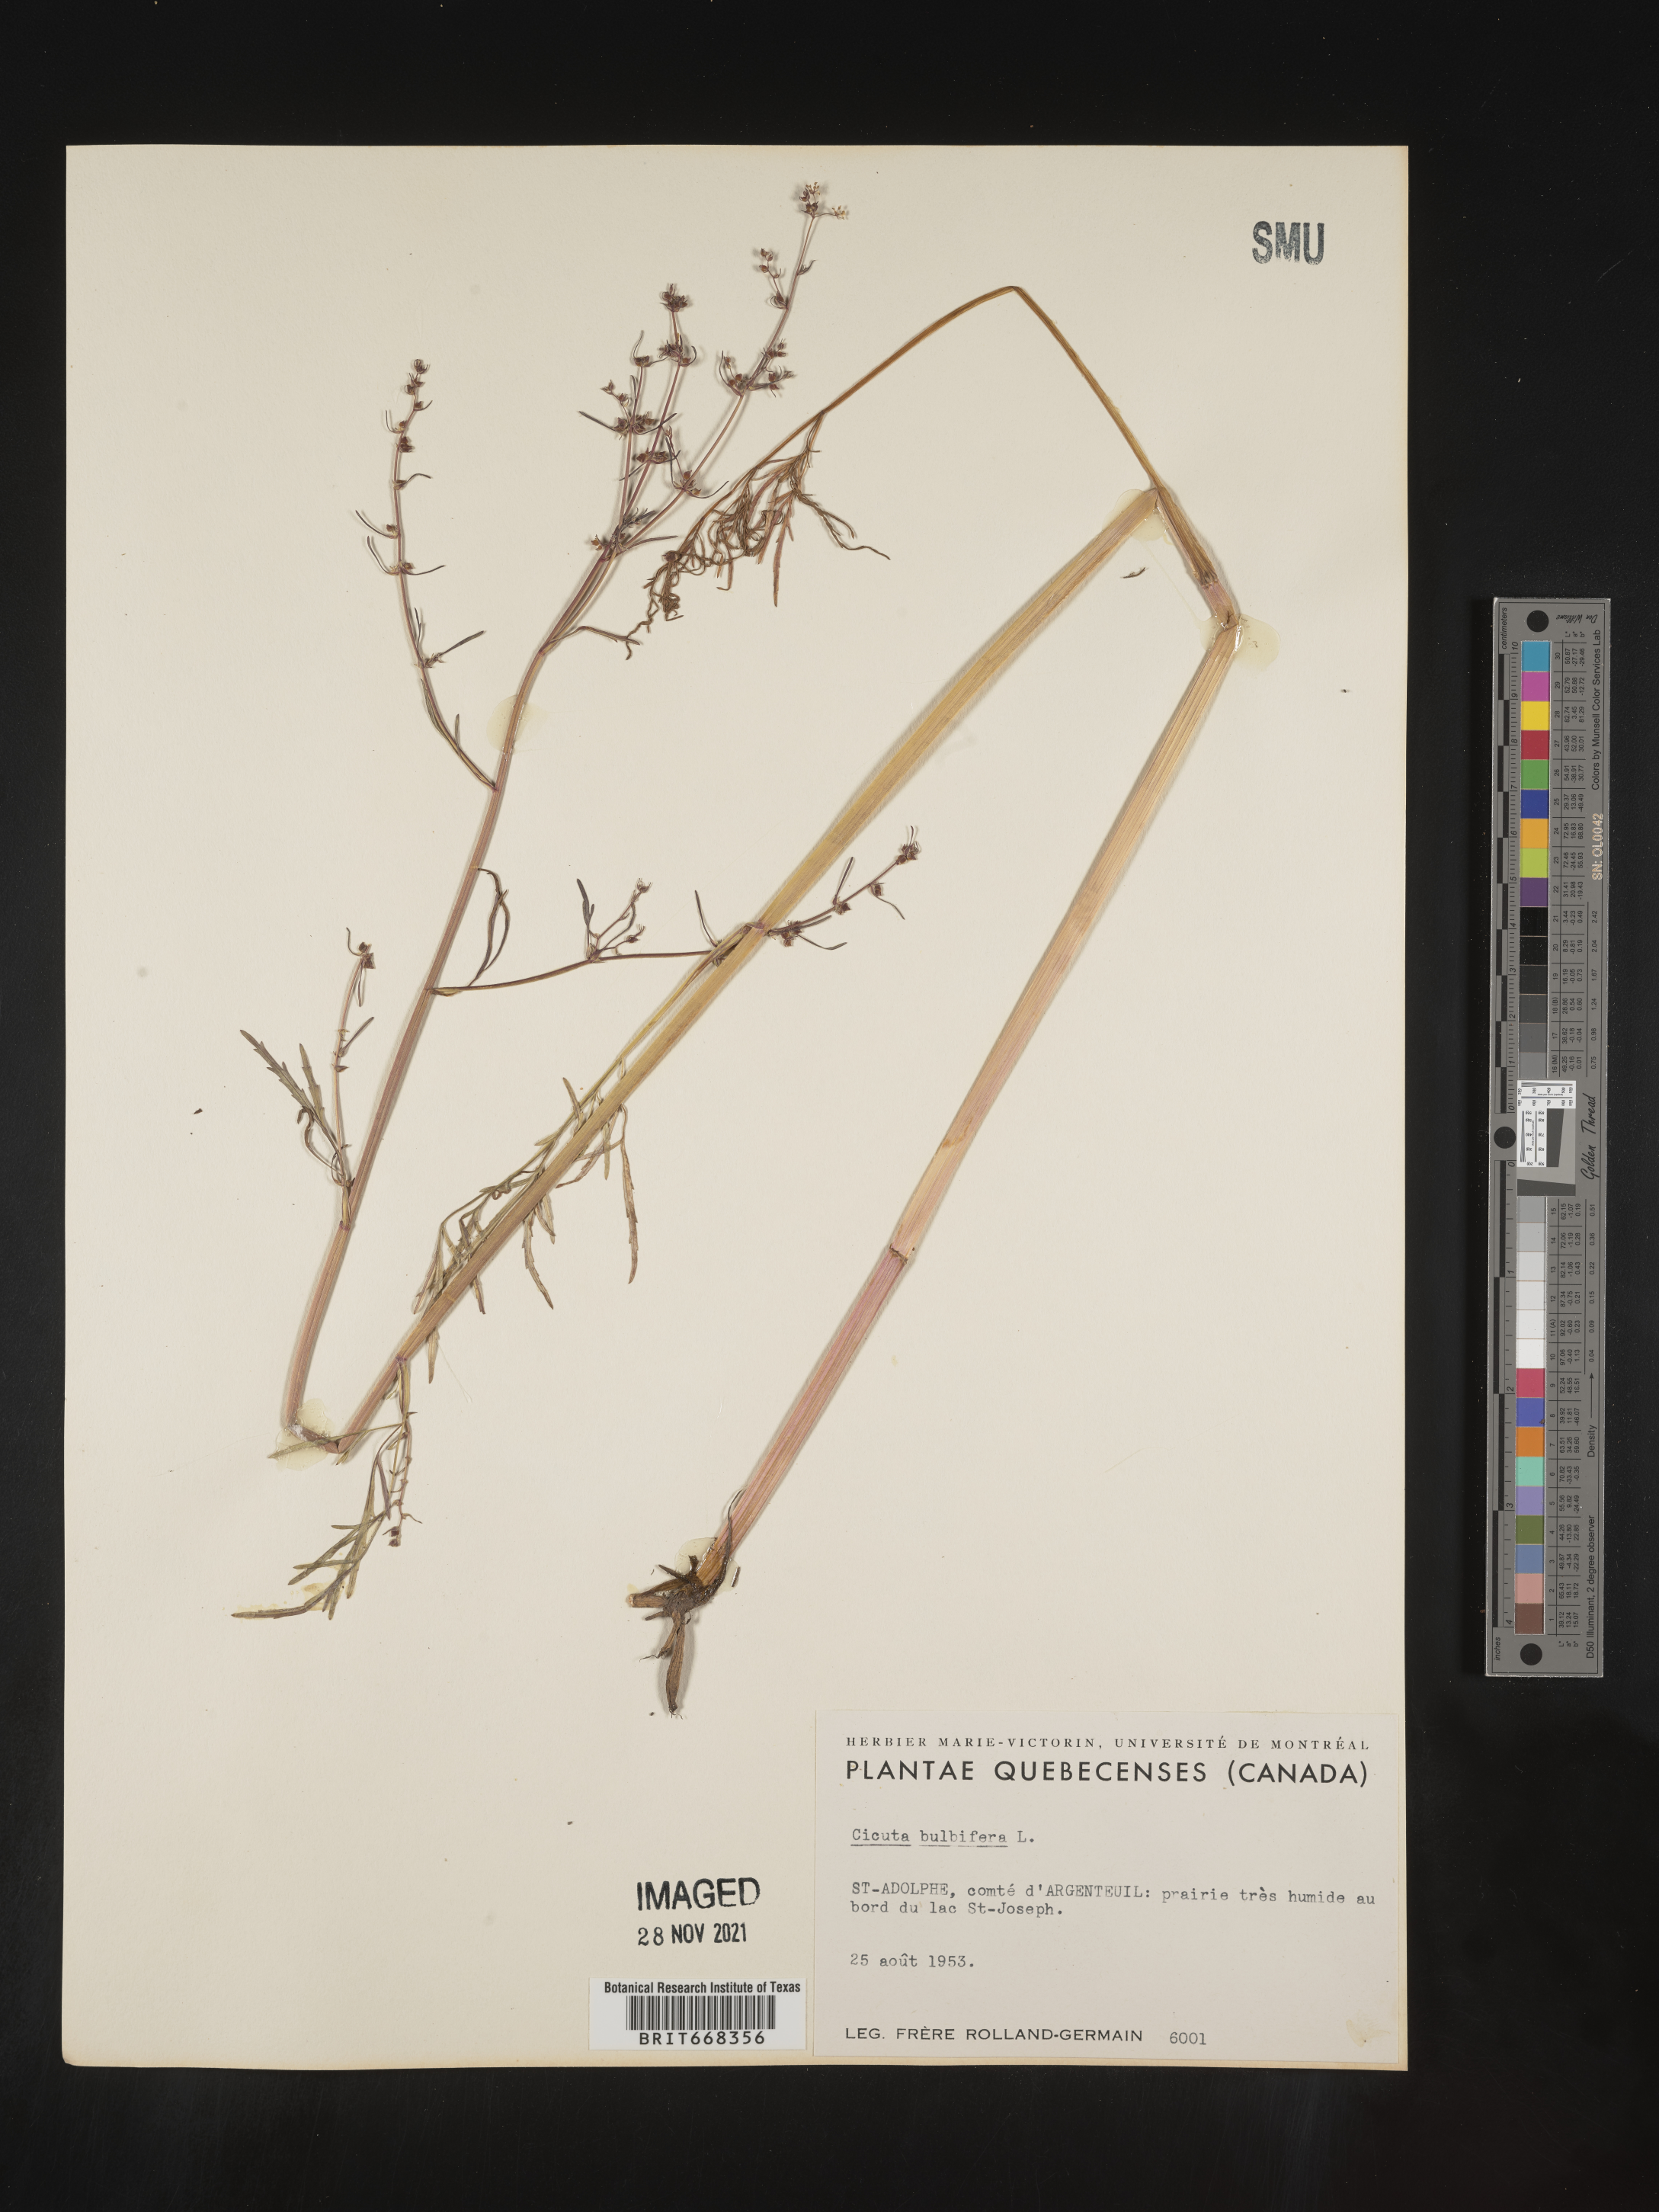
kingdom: Plantae
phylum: Tracheophyta
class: Magnoliopsida
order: Apiales
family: Apiaceae
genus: Cicuta
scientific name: Cicuta
